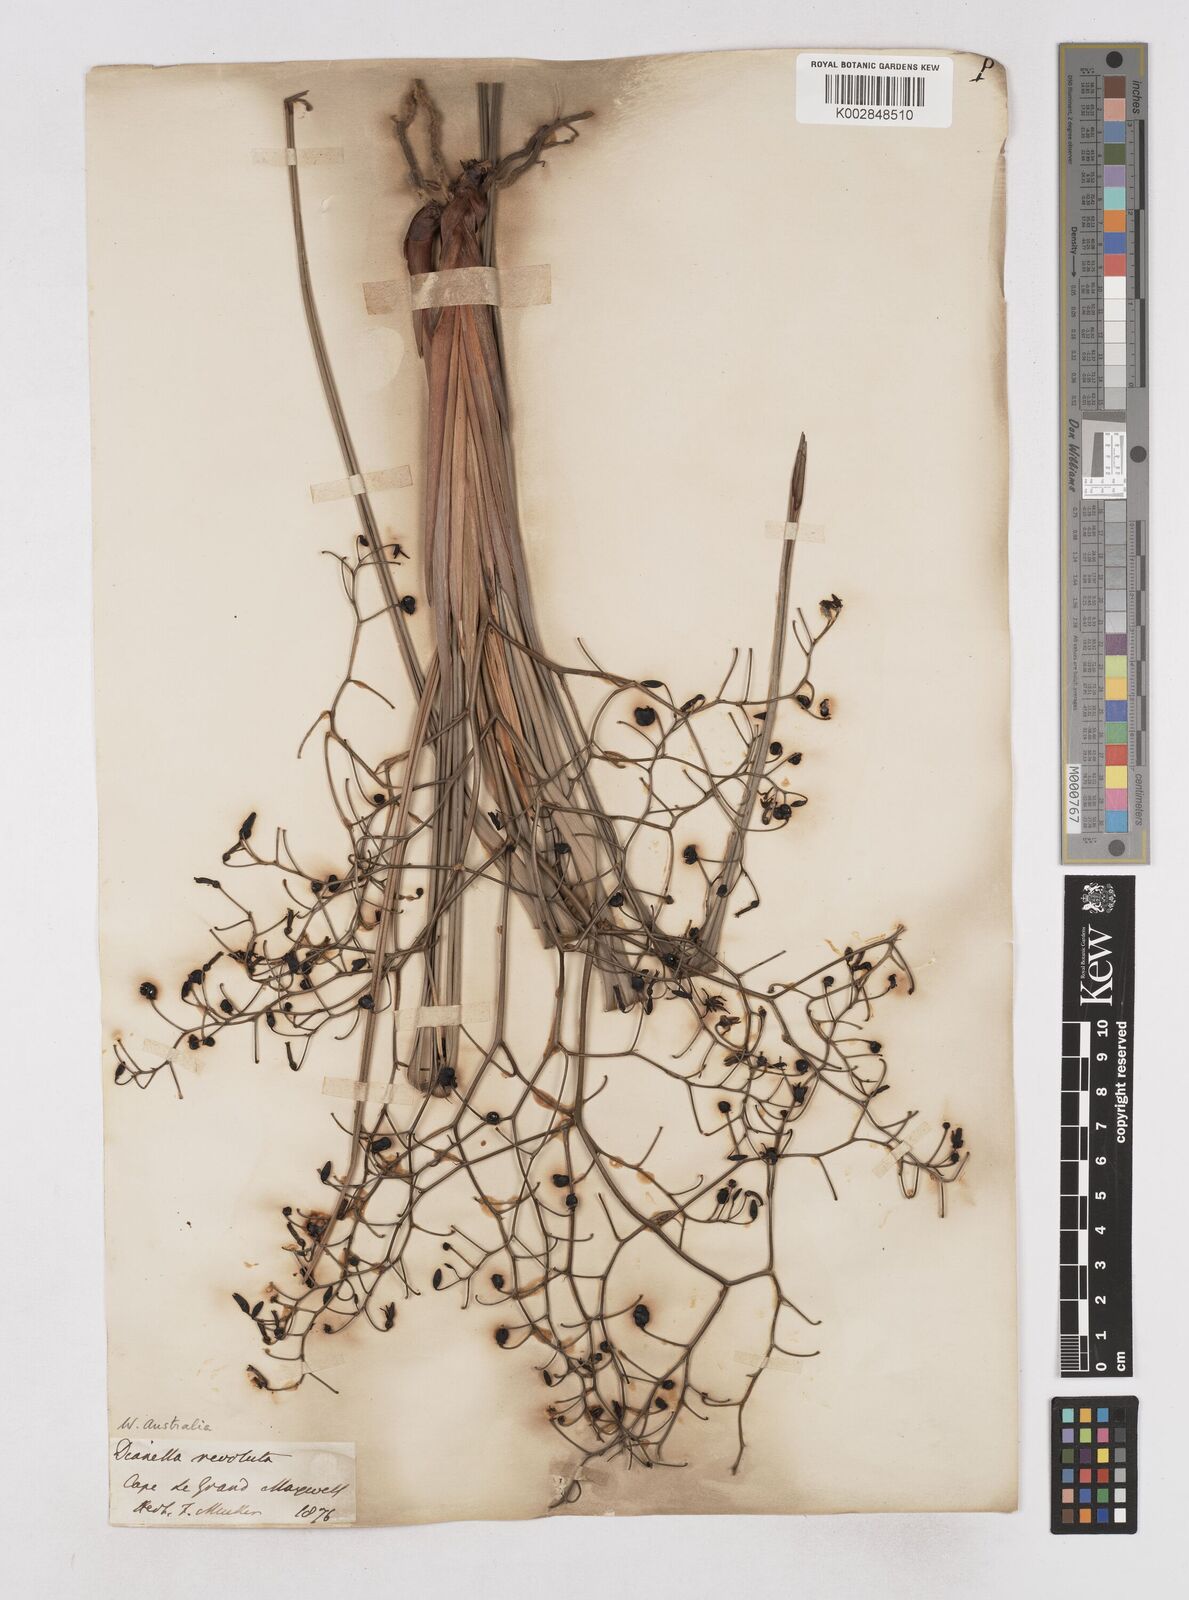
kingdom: Plantae
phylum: Tracheophyta
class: Liliopsida
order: Asparagales
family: Asphodelaceae
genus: Dianella
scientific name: Dianella revoluta
